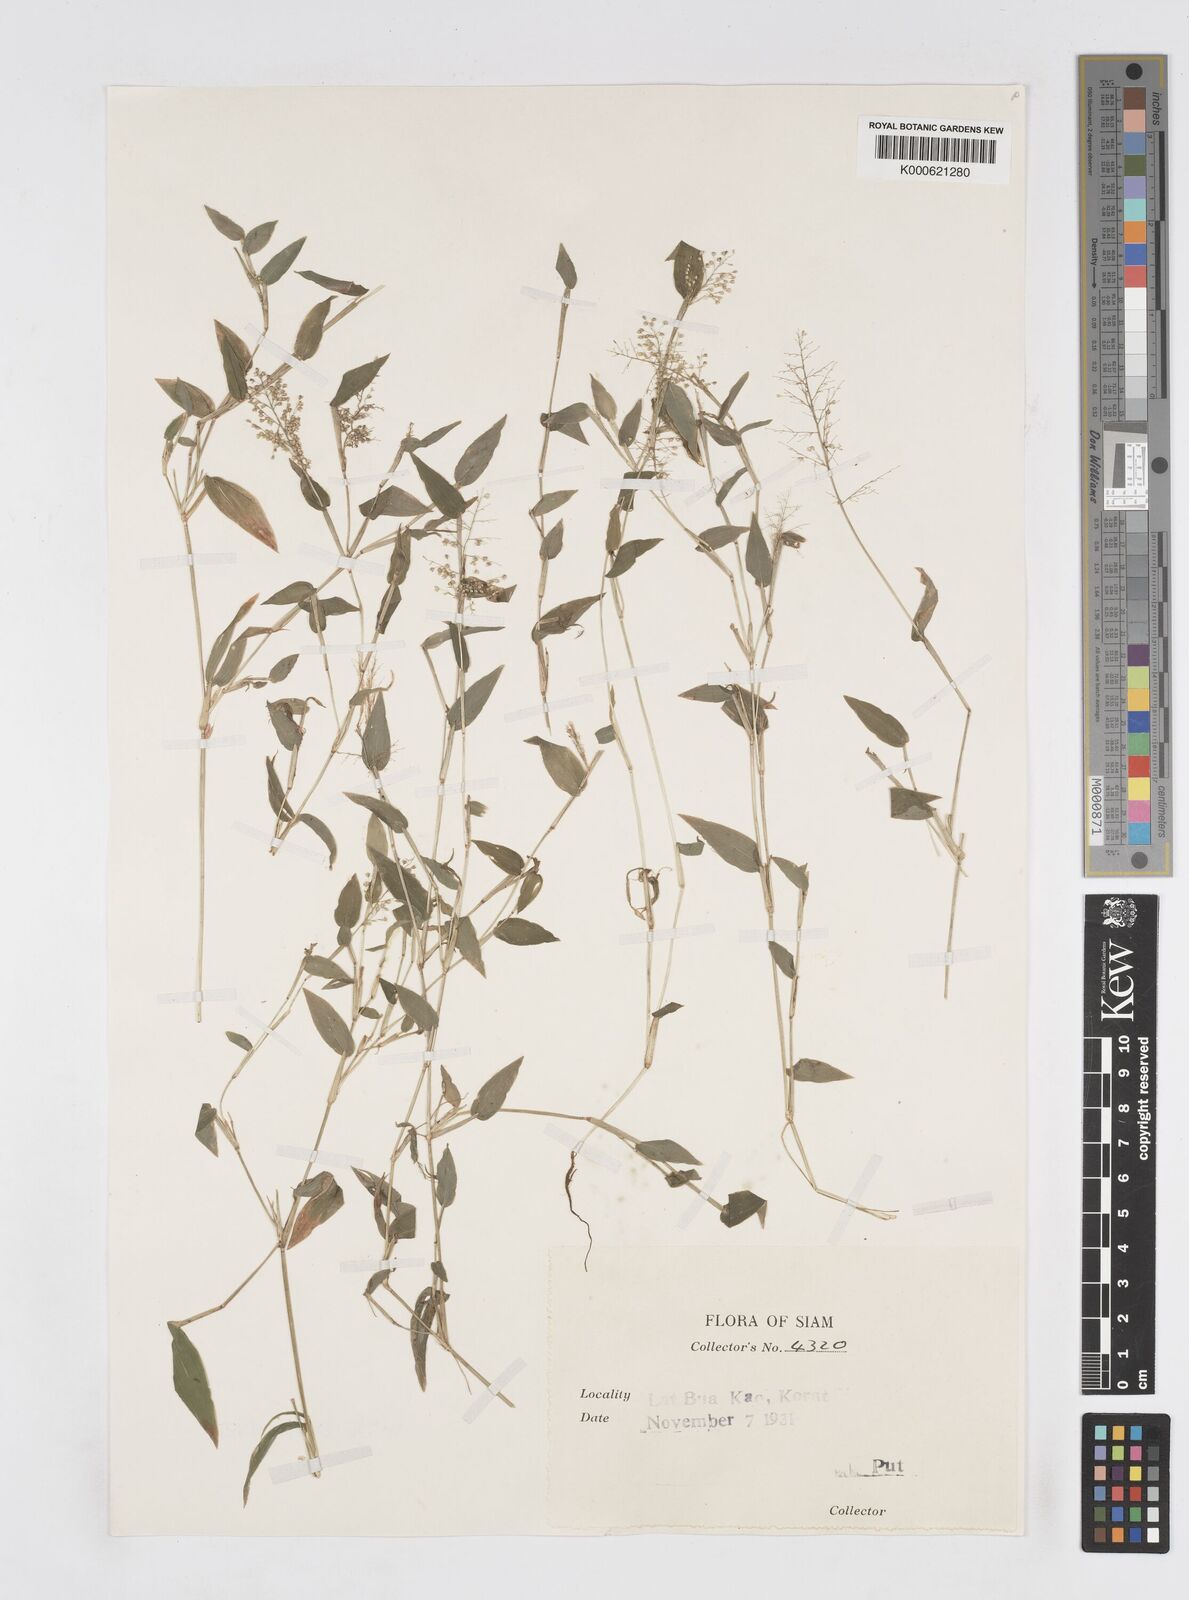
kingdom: Plantae
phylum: Tracheophyta
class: Liliopsida
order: Poales
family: Poaceae
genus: Isachne
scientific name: Isachne pulchella
